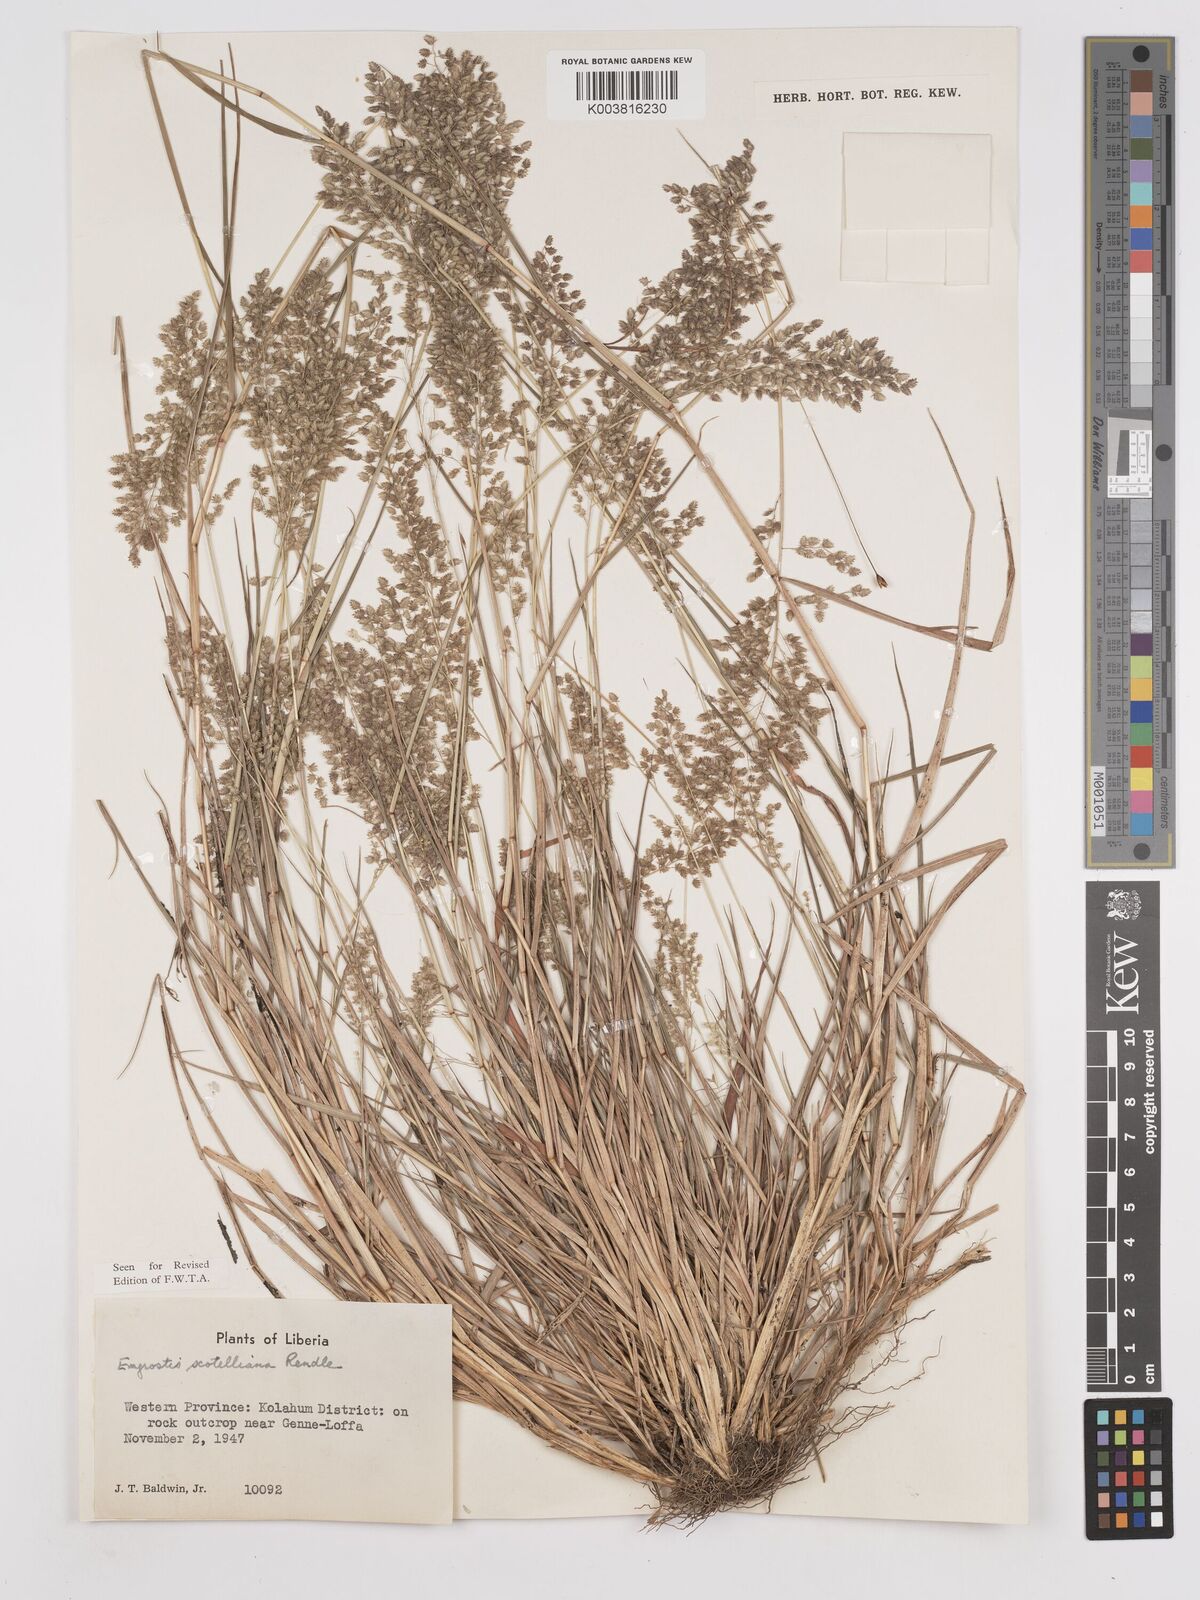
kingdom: Plantae
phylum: Tracheophyta
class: Liliopsida
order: Poales
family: Poaceae
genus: Eragrostis
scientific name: Eragrostis scotelliana
